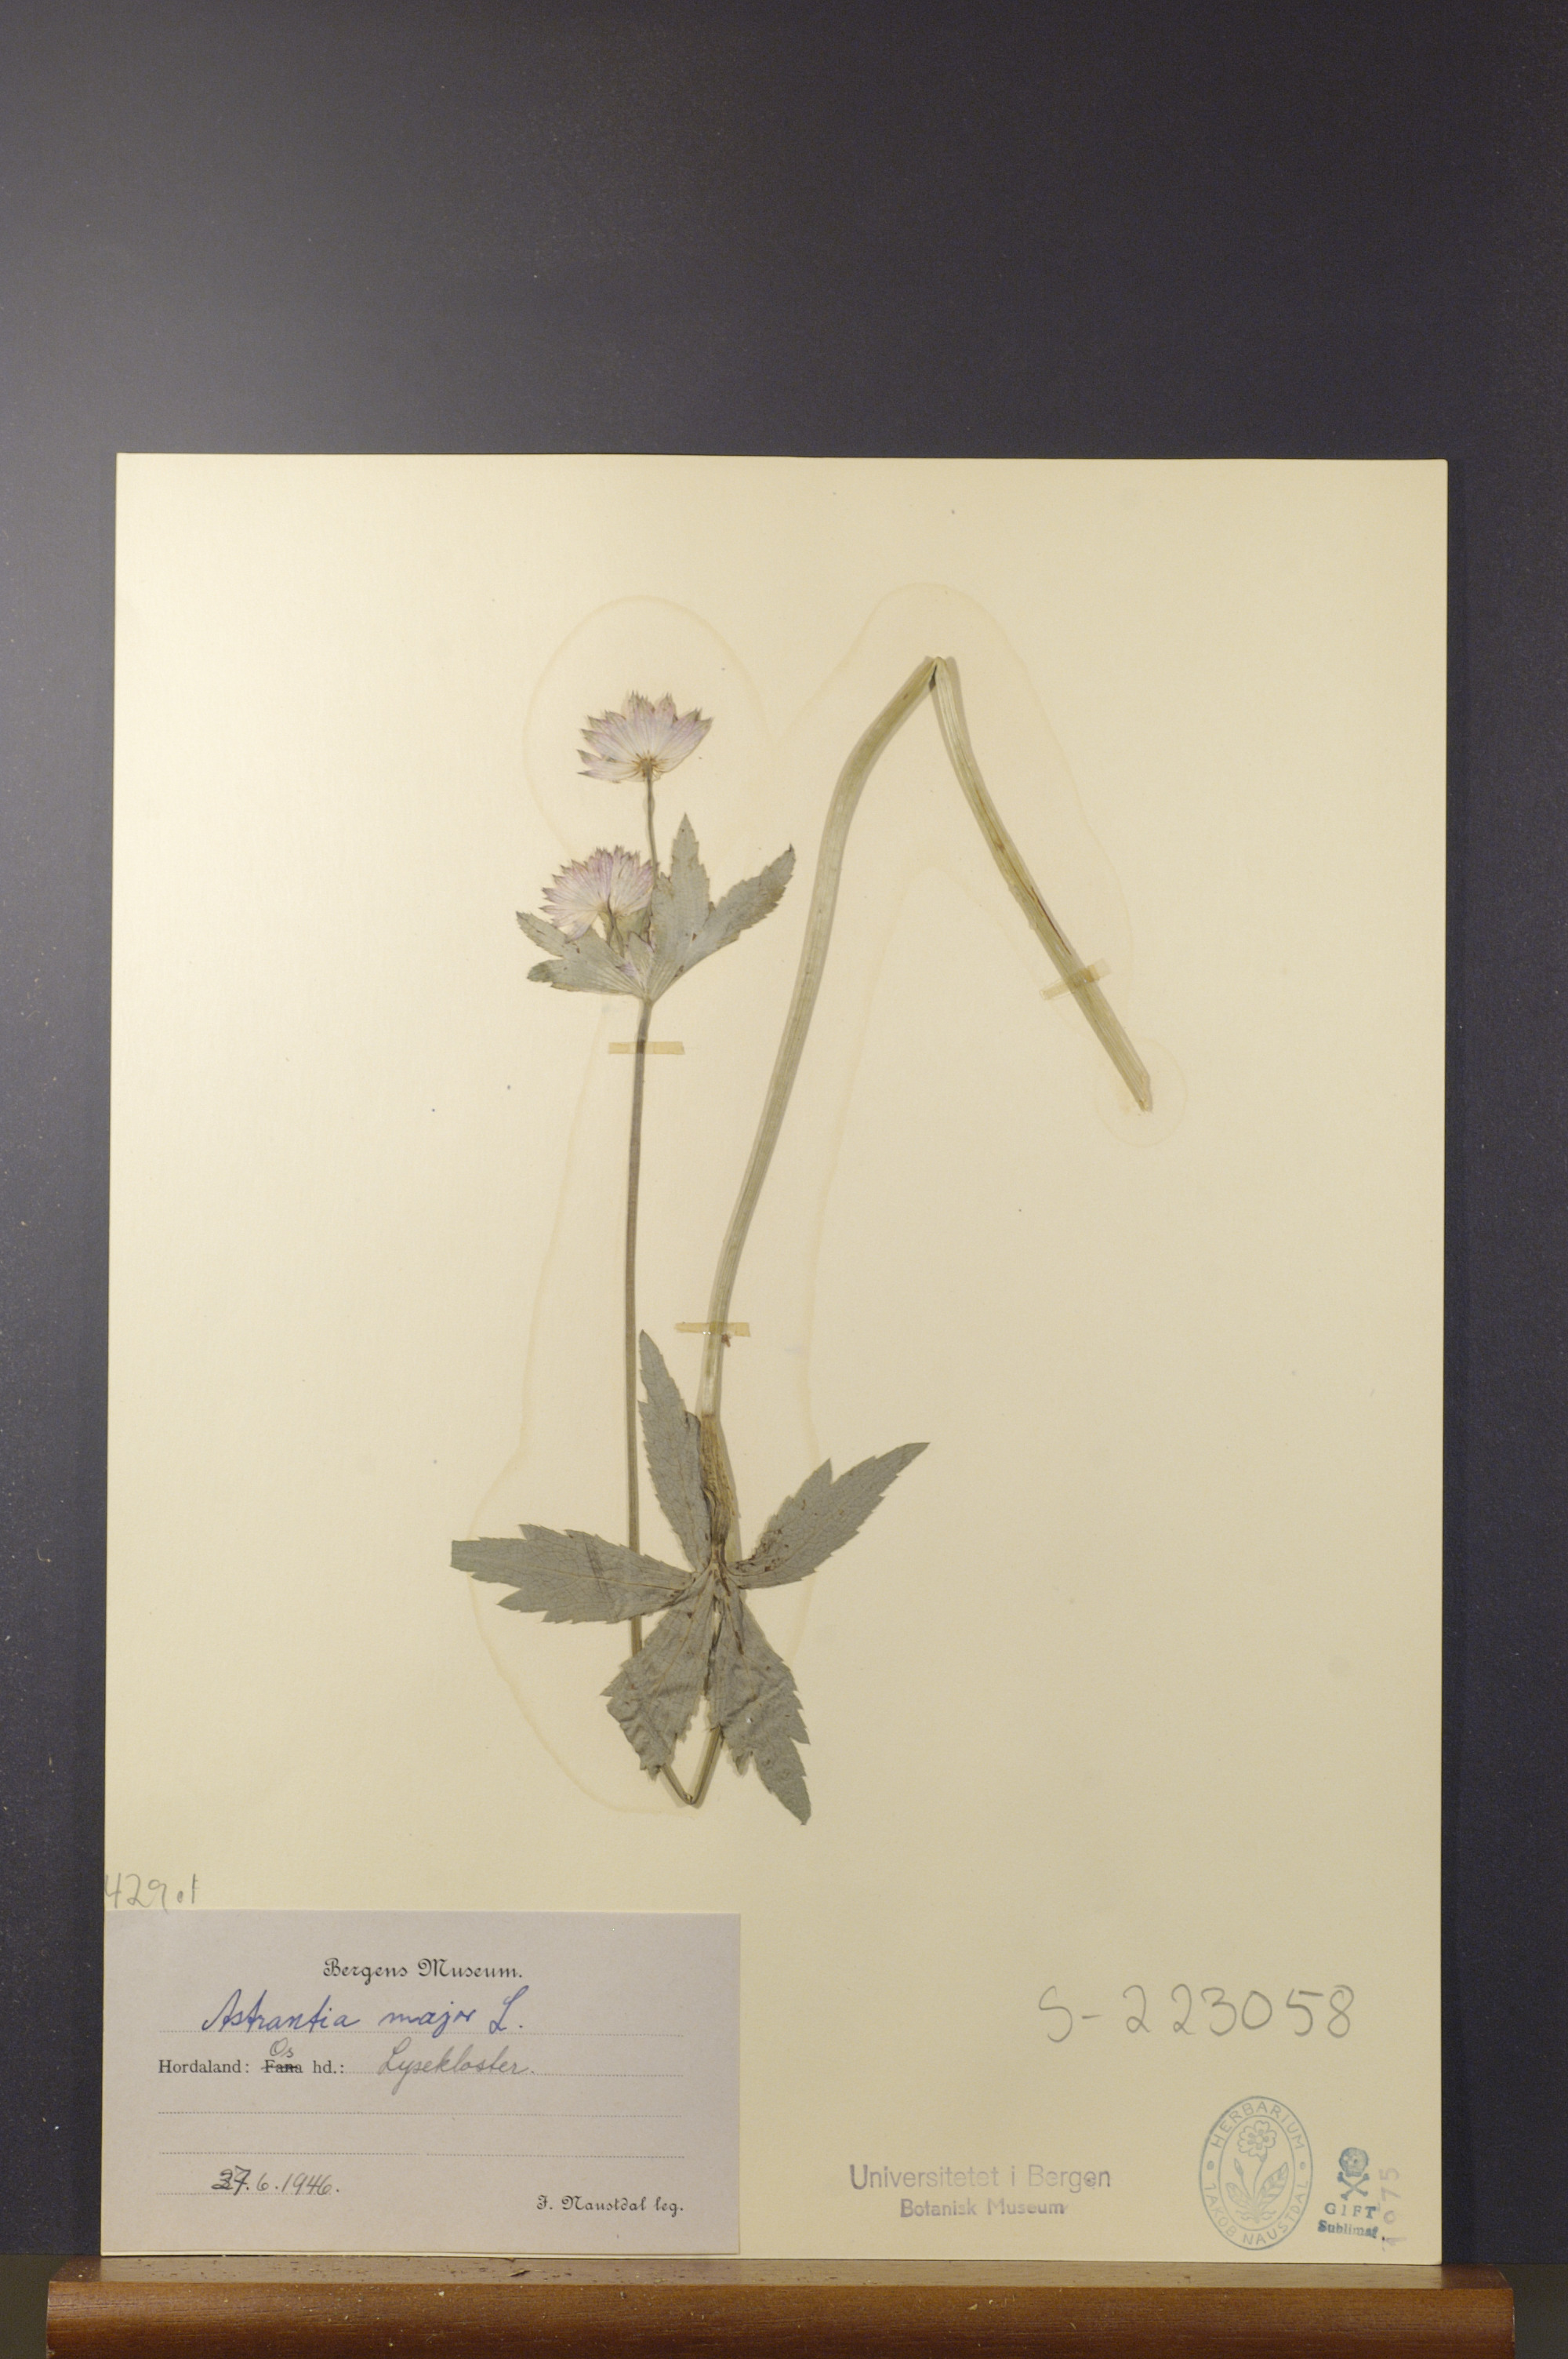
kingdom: Plantae
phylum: Tracheophyta
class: Magnoliopsida
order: Apiales
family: Apiaceae
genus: Astrantia
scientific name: Astrantia major
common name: Greater masterwort
